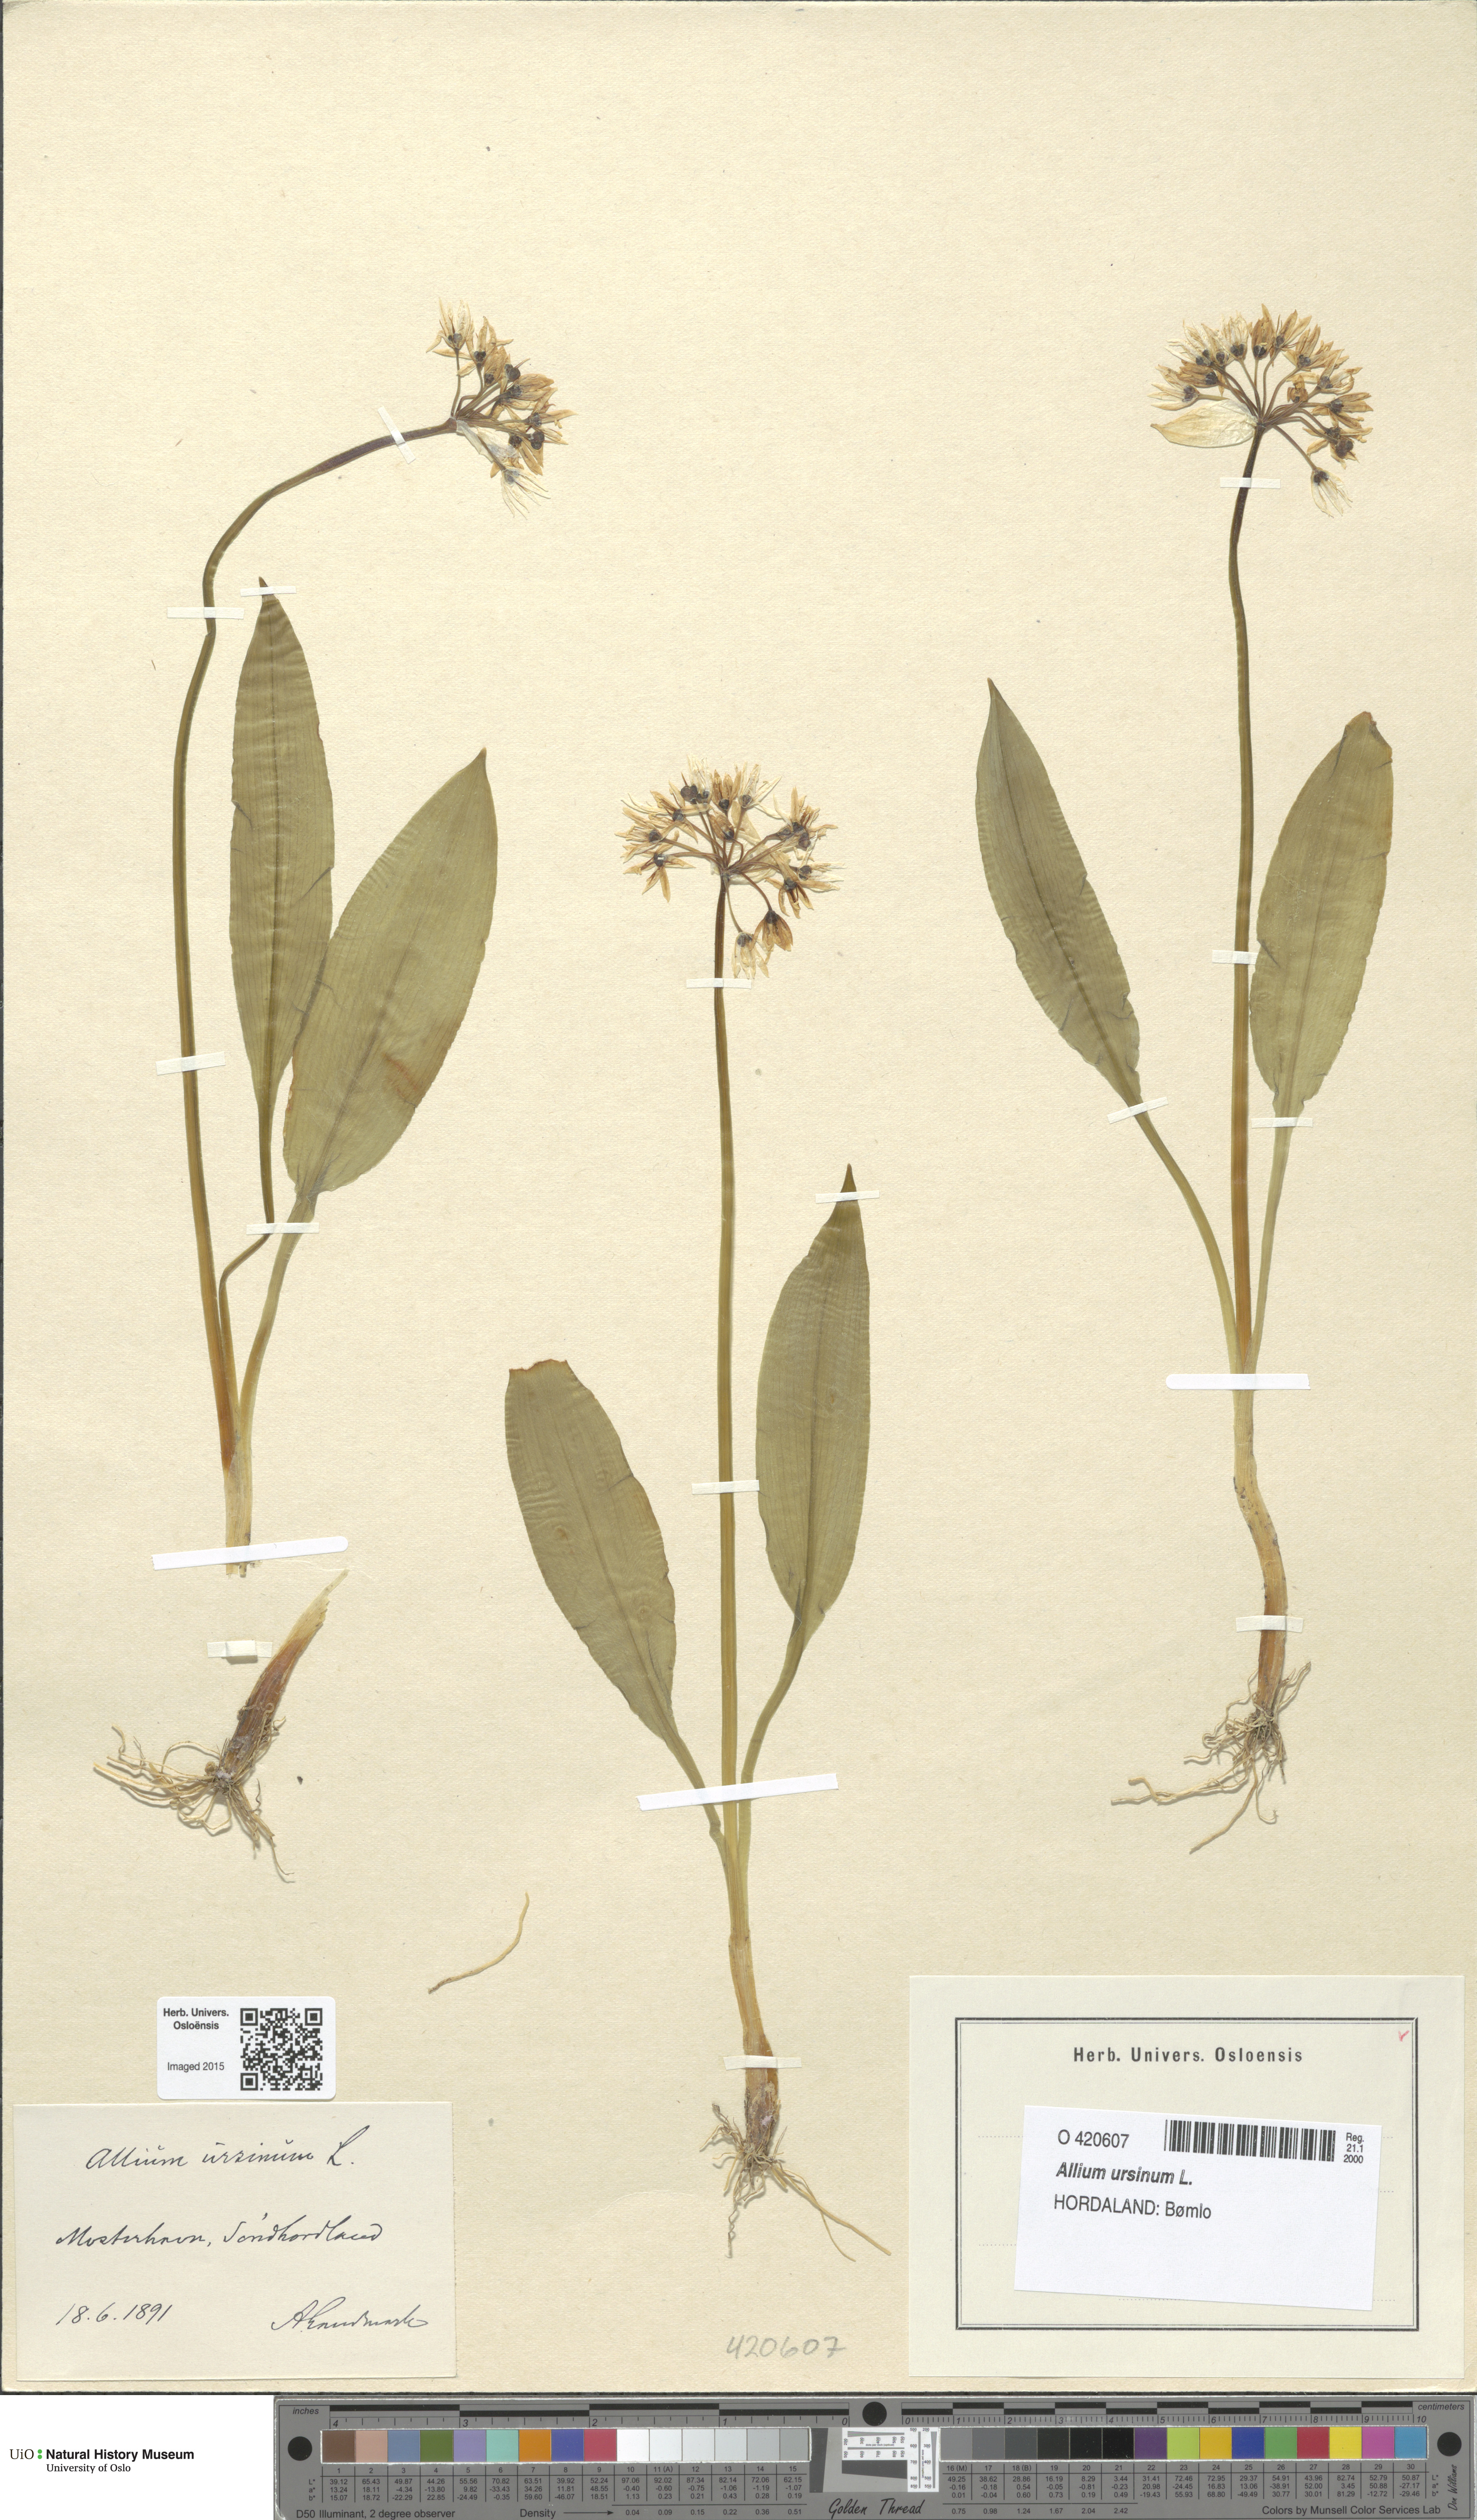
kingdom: Plantae
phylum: Tracheophyta
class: Liliopsida
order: Asparagales
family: Amaryllidaceae
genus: Allium
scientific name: Allium ursinum
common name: Ramsons
